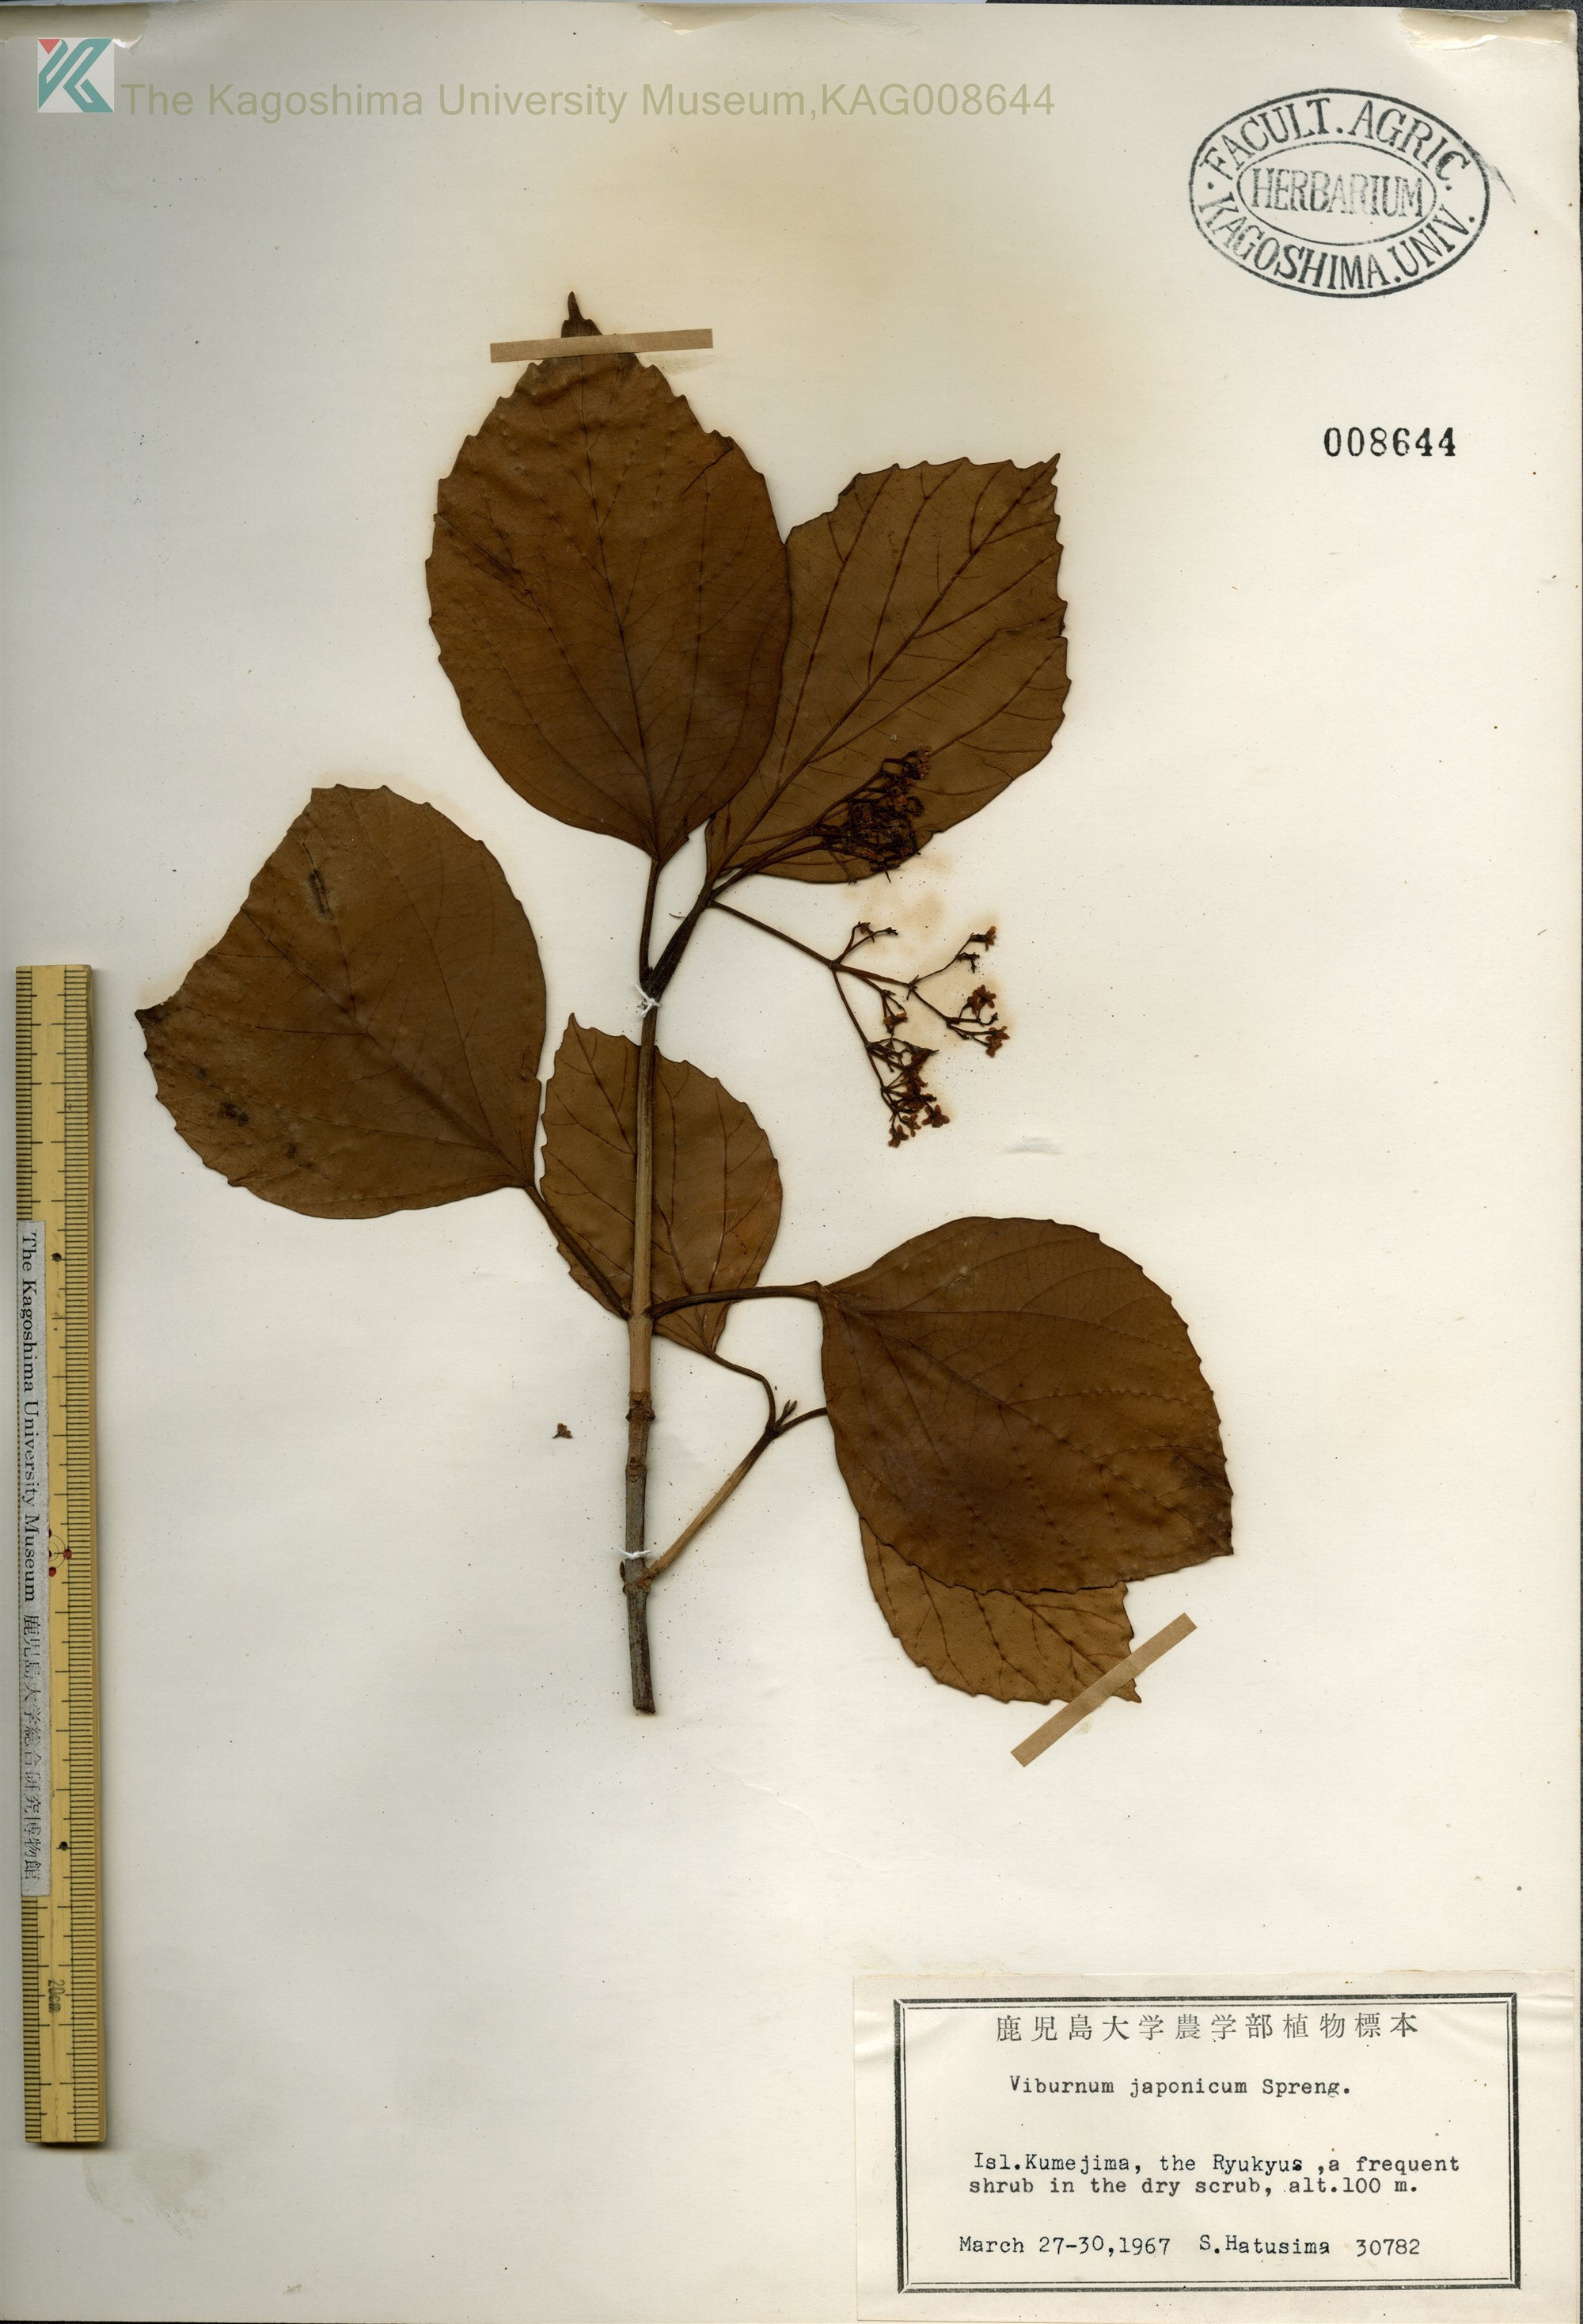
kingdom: Plantae
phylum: Tracheophyta
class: Magnoliopsida
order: Dipsacales
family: Viburnaceae
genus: Viburnum
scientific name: Viburnum japonicum
